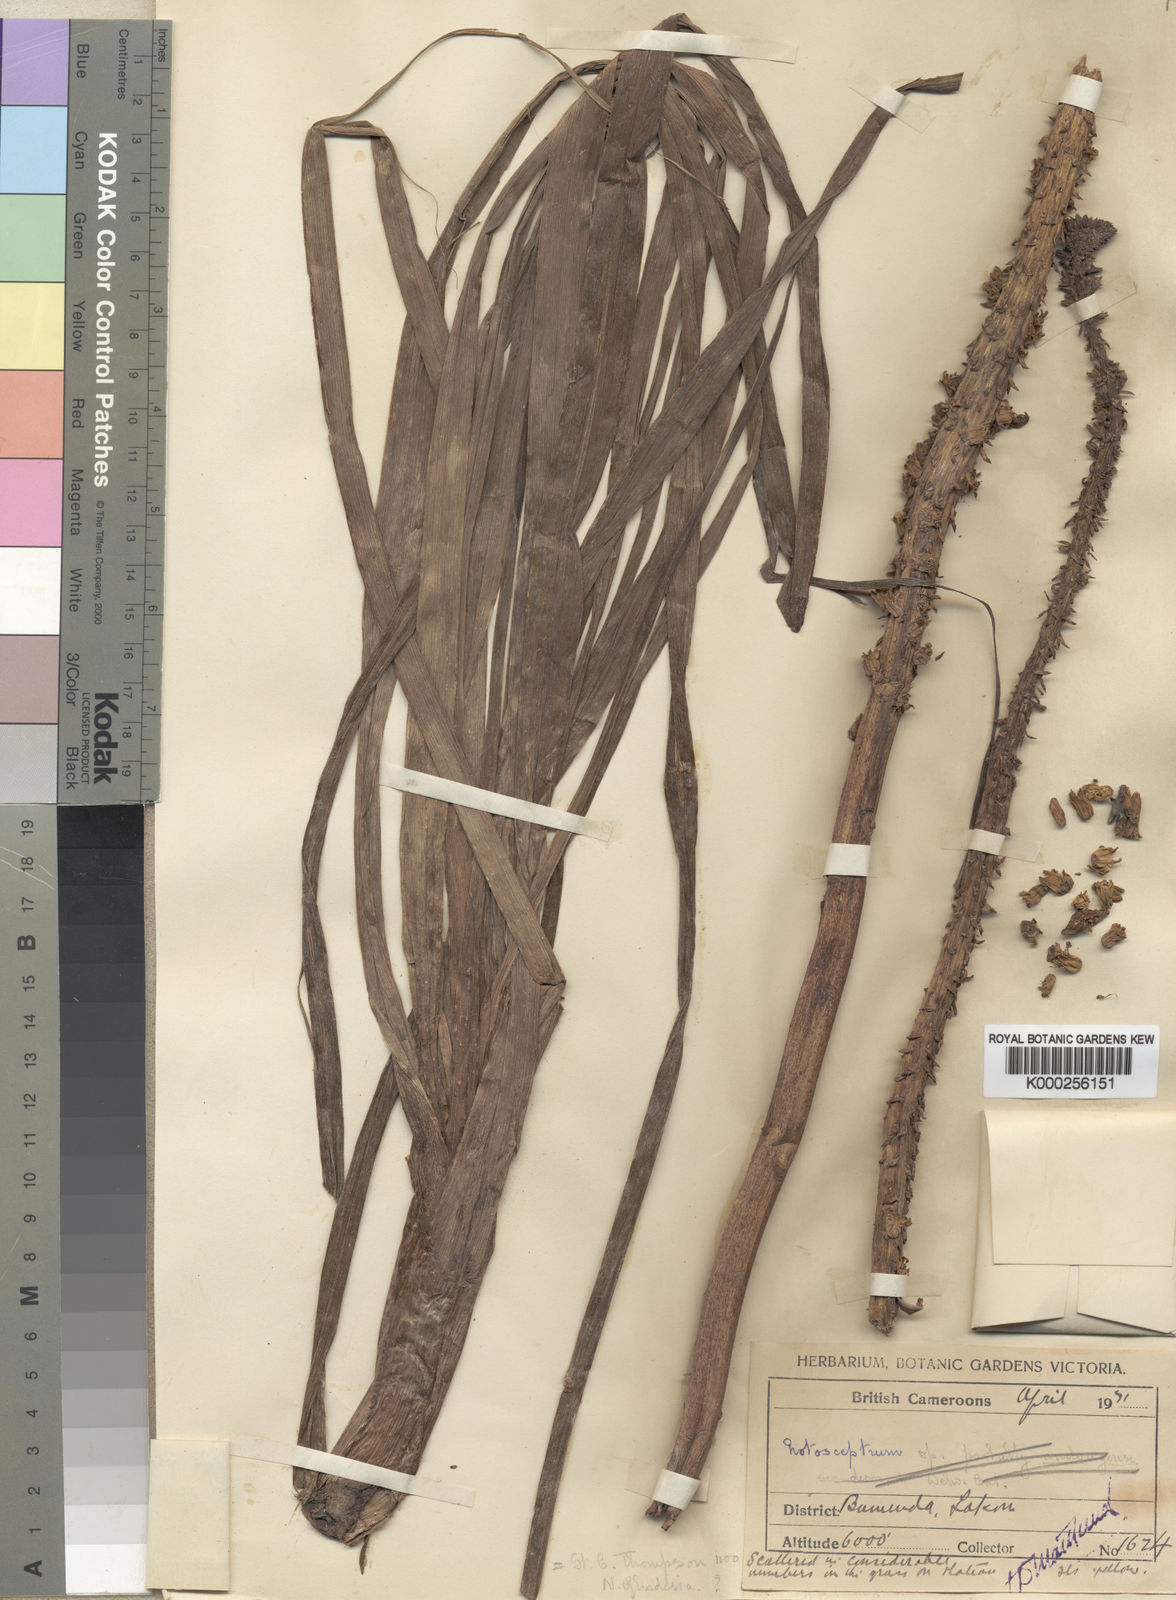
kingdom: Plantae
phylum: Tracheophyta
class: Liliopsida
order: Asparagales
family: Asphodelaceae
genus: Kniphofia
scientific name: Kniphofia reflexa
